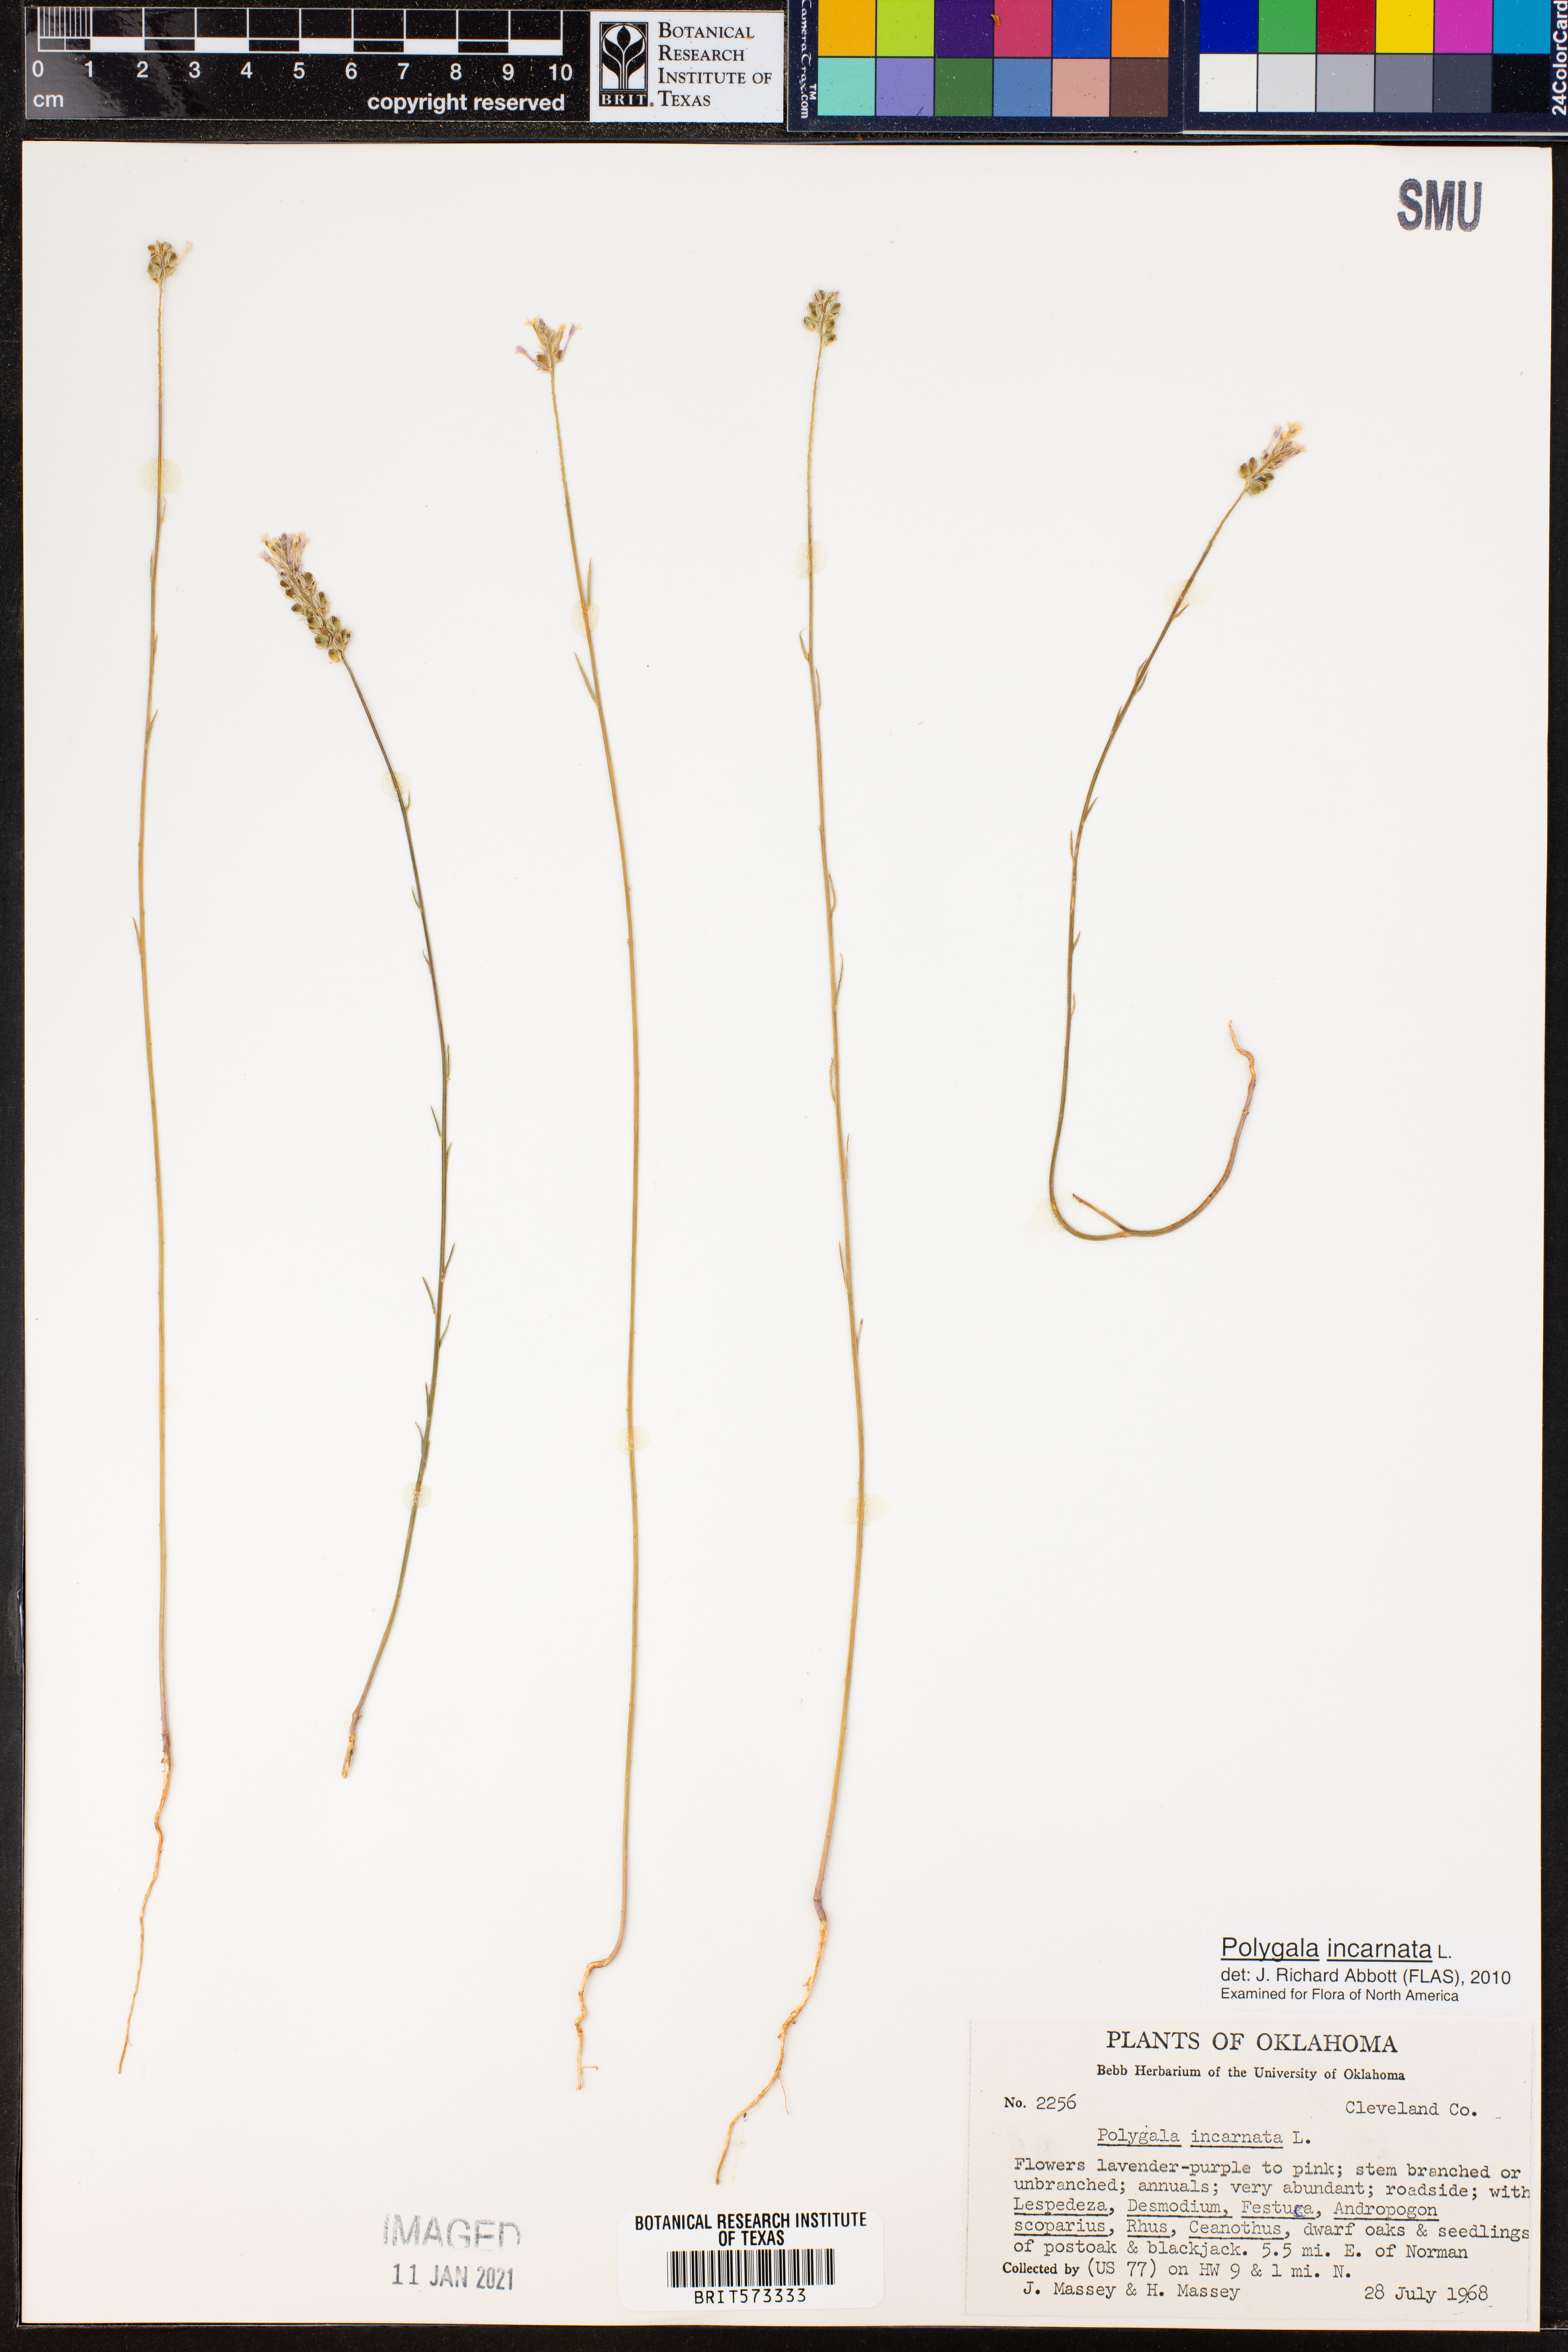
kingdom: Plantae
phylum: Tracheophyta
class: Magnoliopsida
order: Fabales
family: Polygalaceae
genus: Polygala
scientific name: Polygala incarnata
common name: Pink milkwort
